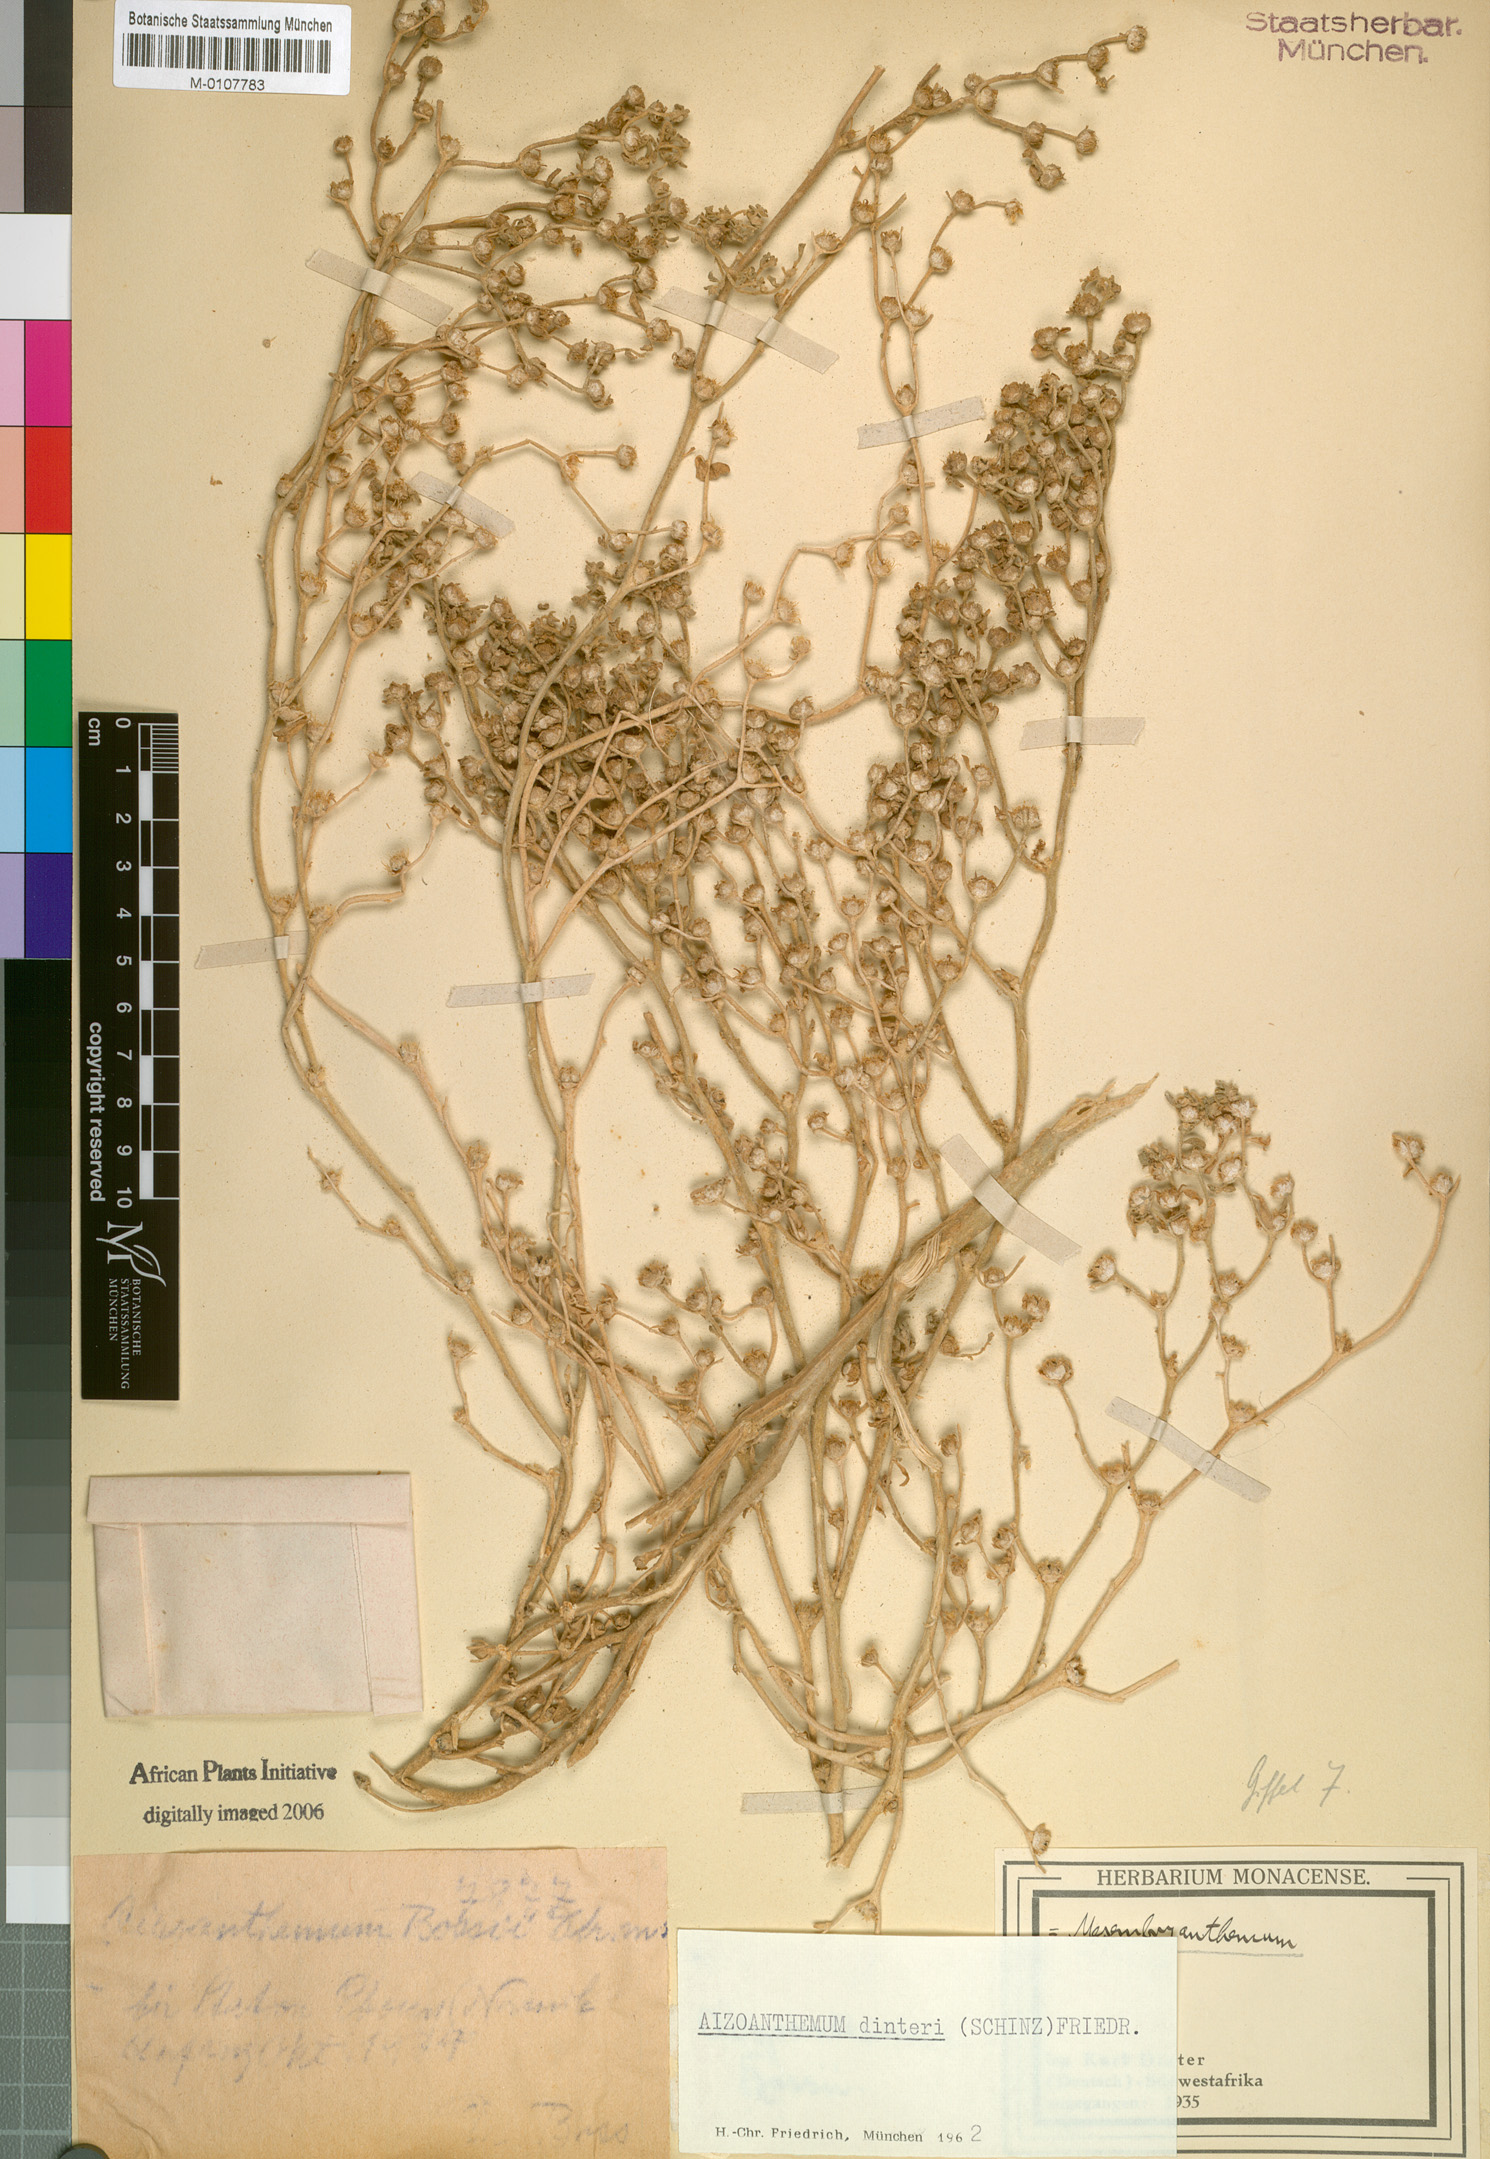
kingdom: Plantae
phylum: Tracheophyta
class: Magnoliopsida
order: Caryophyllales
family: Aizoaceae
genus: Aizoanthemum
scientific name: Aizoanthemum dinteri
